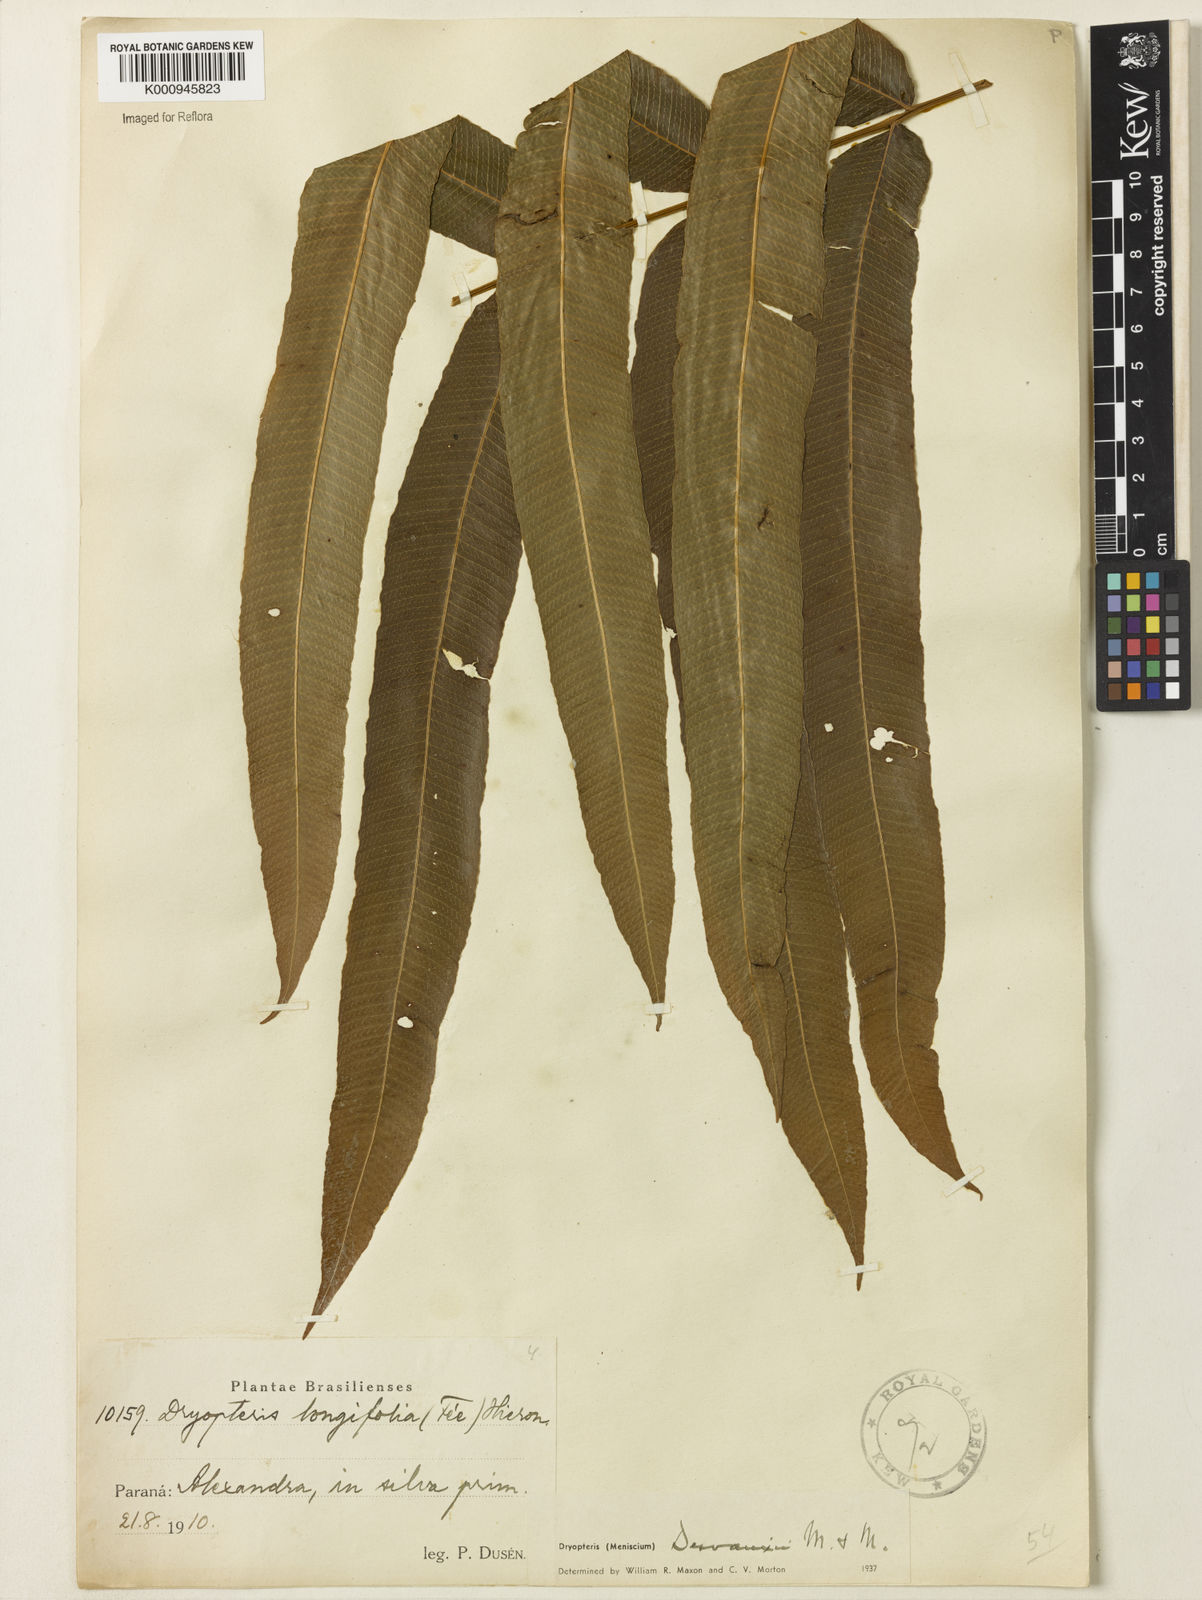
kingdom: Plantae
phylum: Tracheophyta
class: Polypodiopsida
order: Polypodiales
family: Thelypteridaceae
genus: Meniscium
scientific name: Meniscium longifolium
